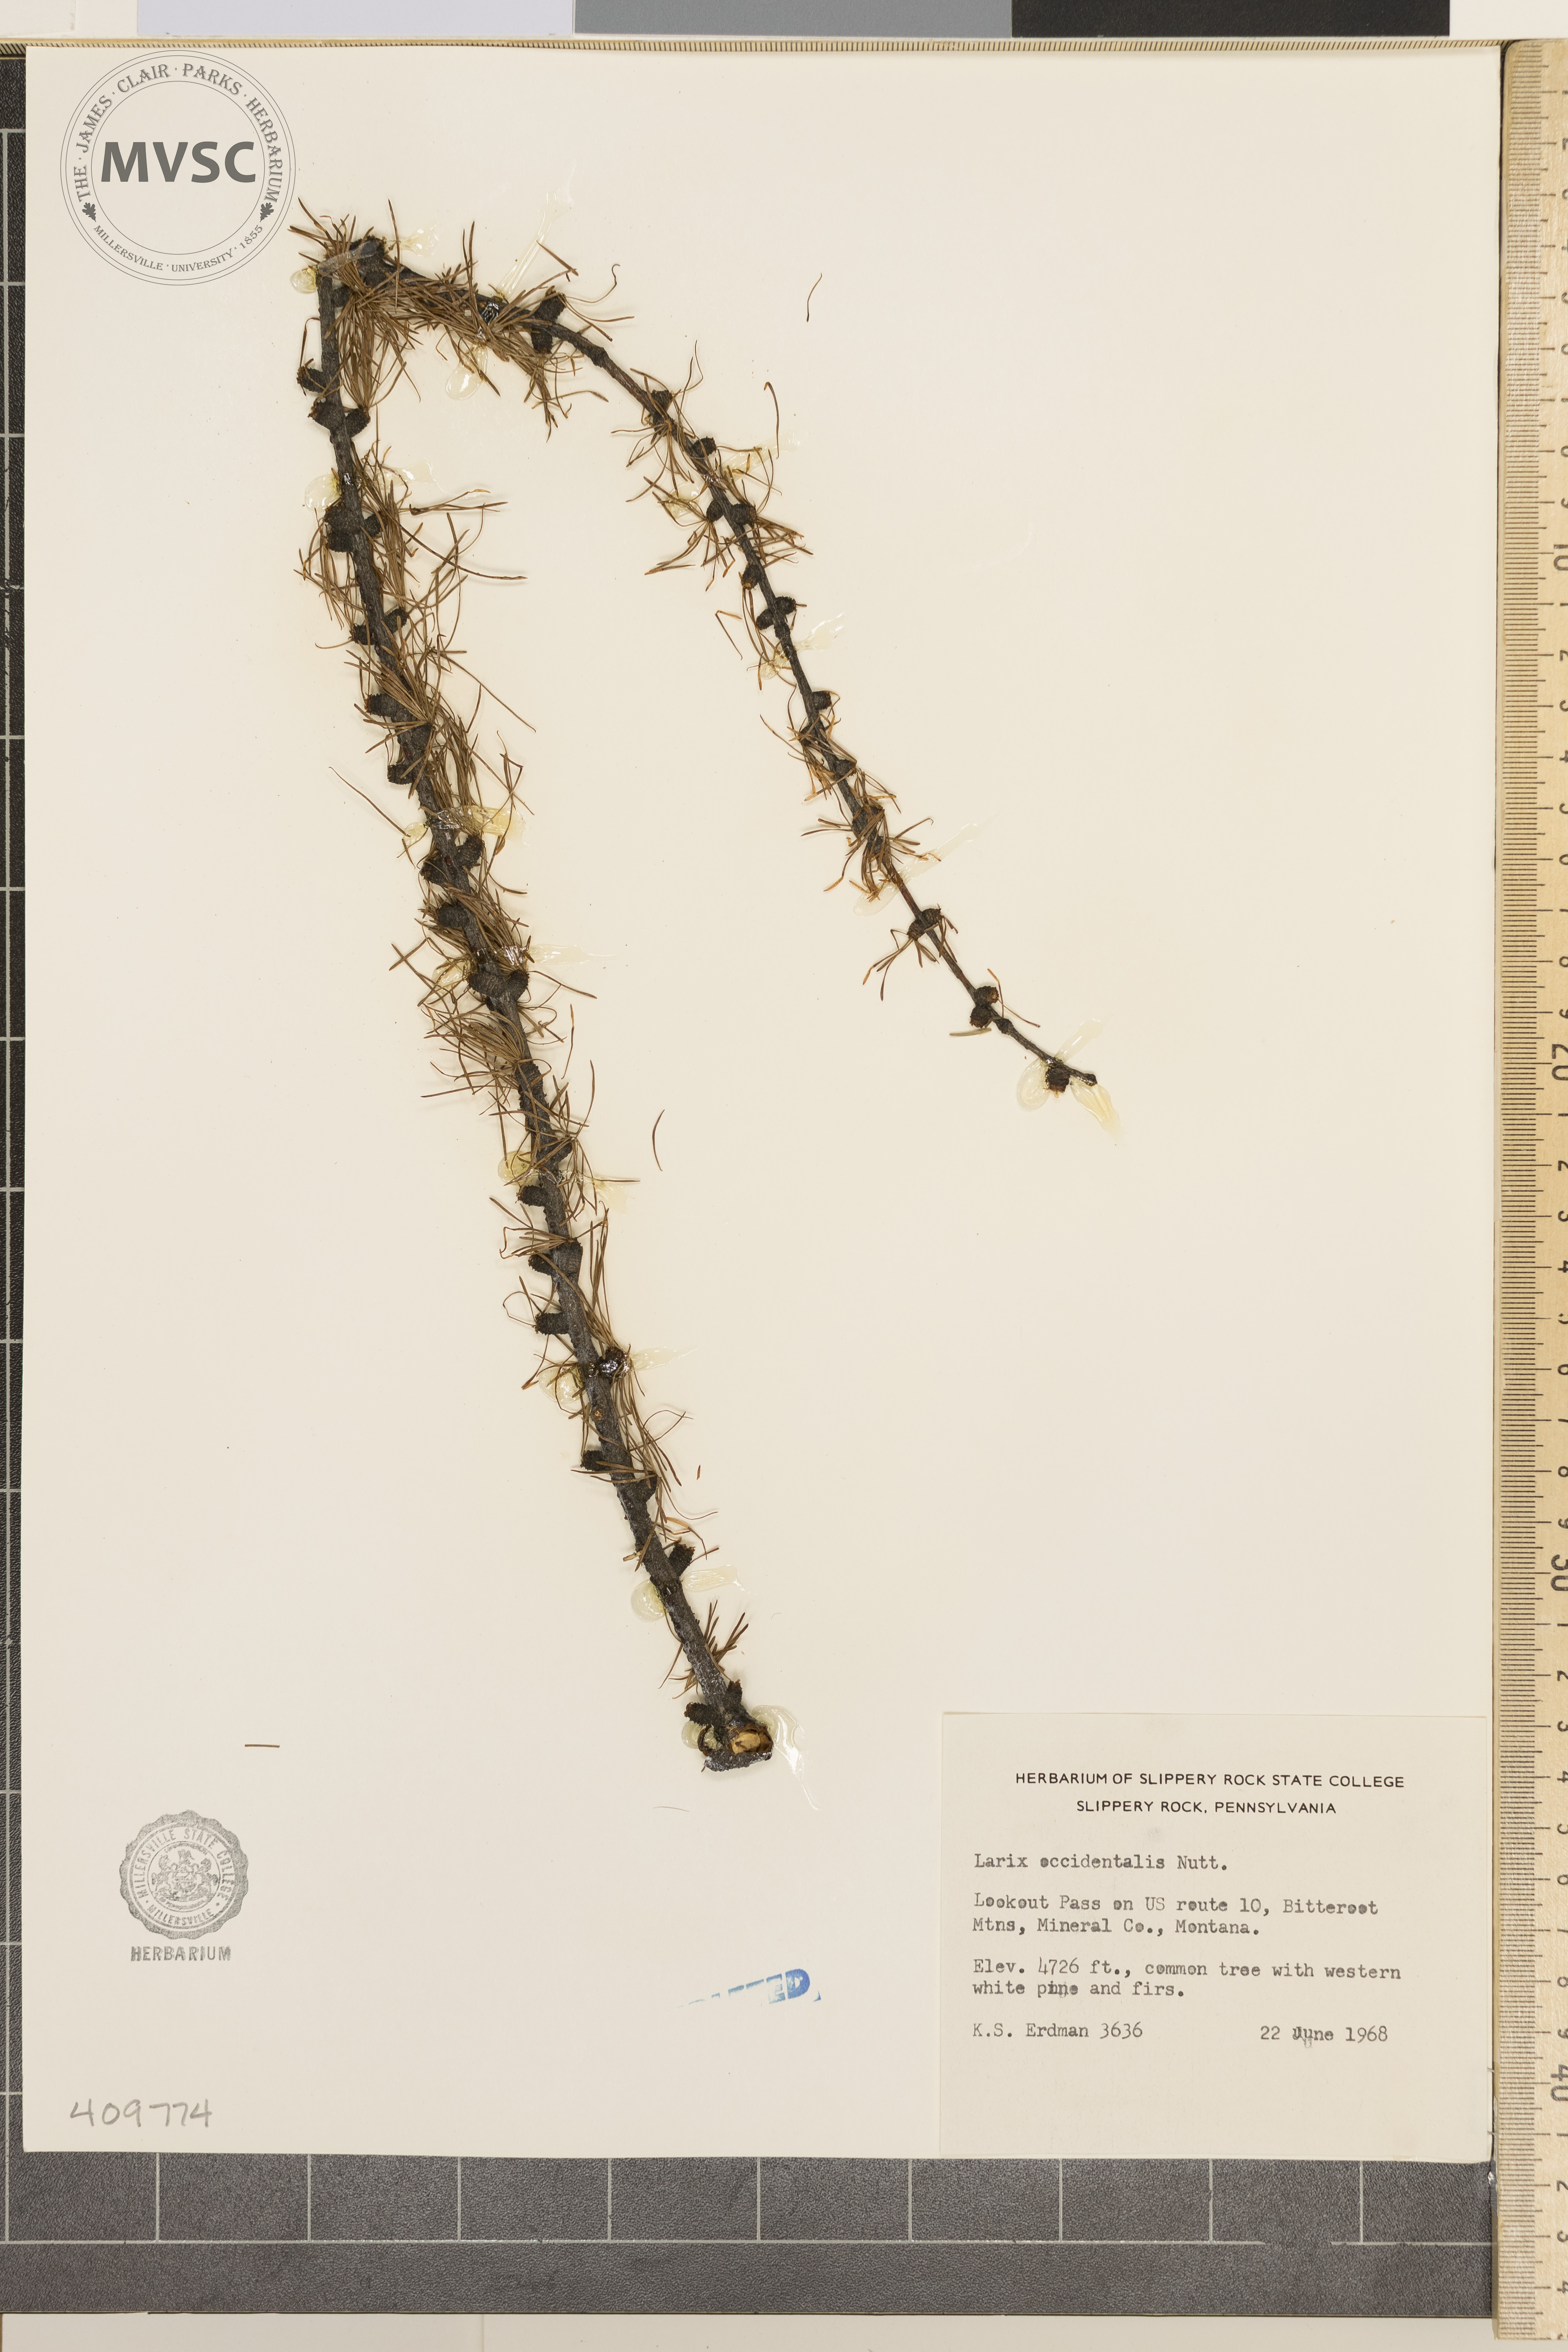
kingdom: Plantae
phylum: Tracheophyta
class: Pinopsida
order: Pinales
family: Pinaceae
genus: Larix
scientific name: Larix occidentalis
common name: Western larch
